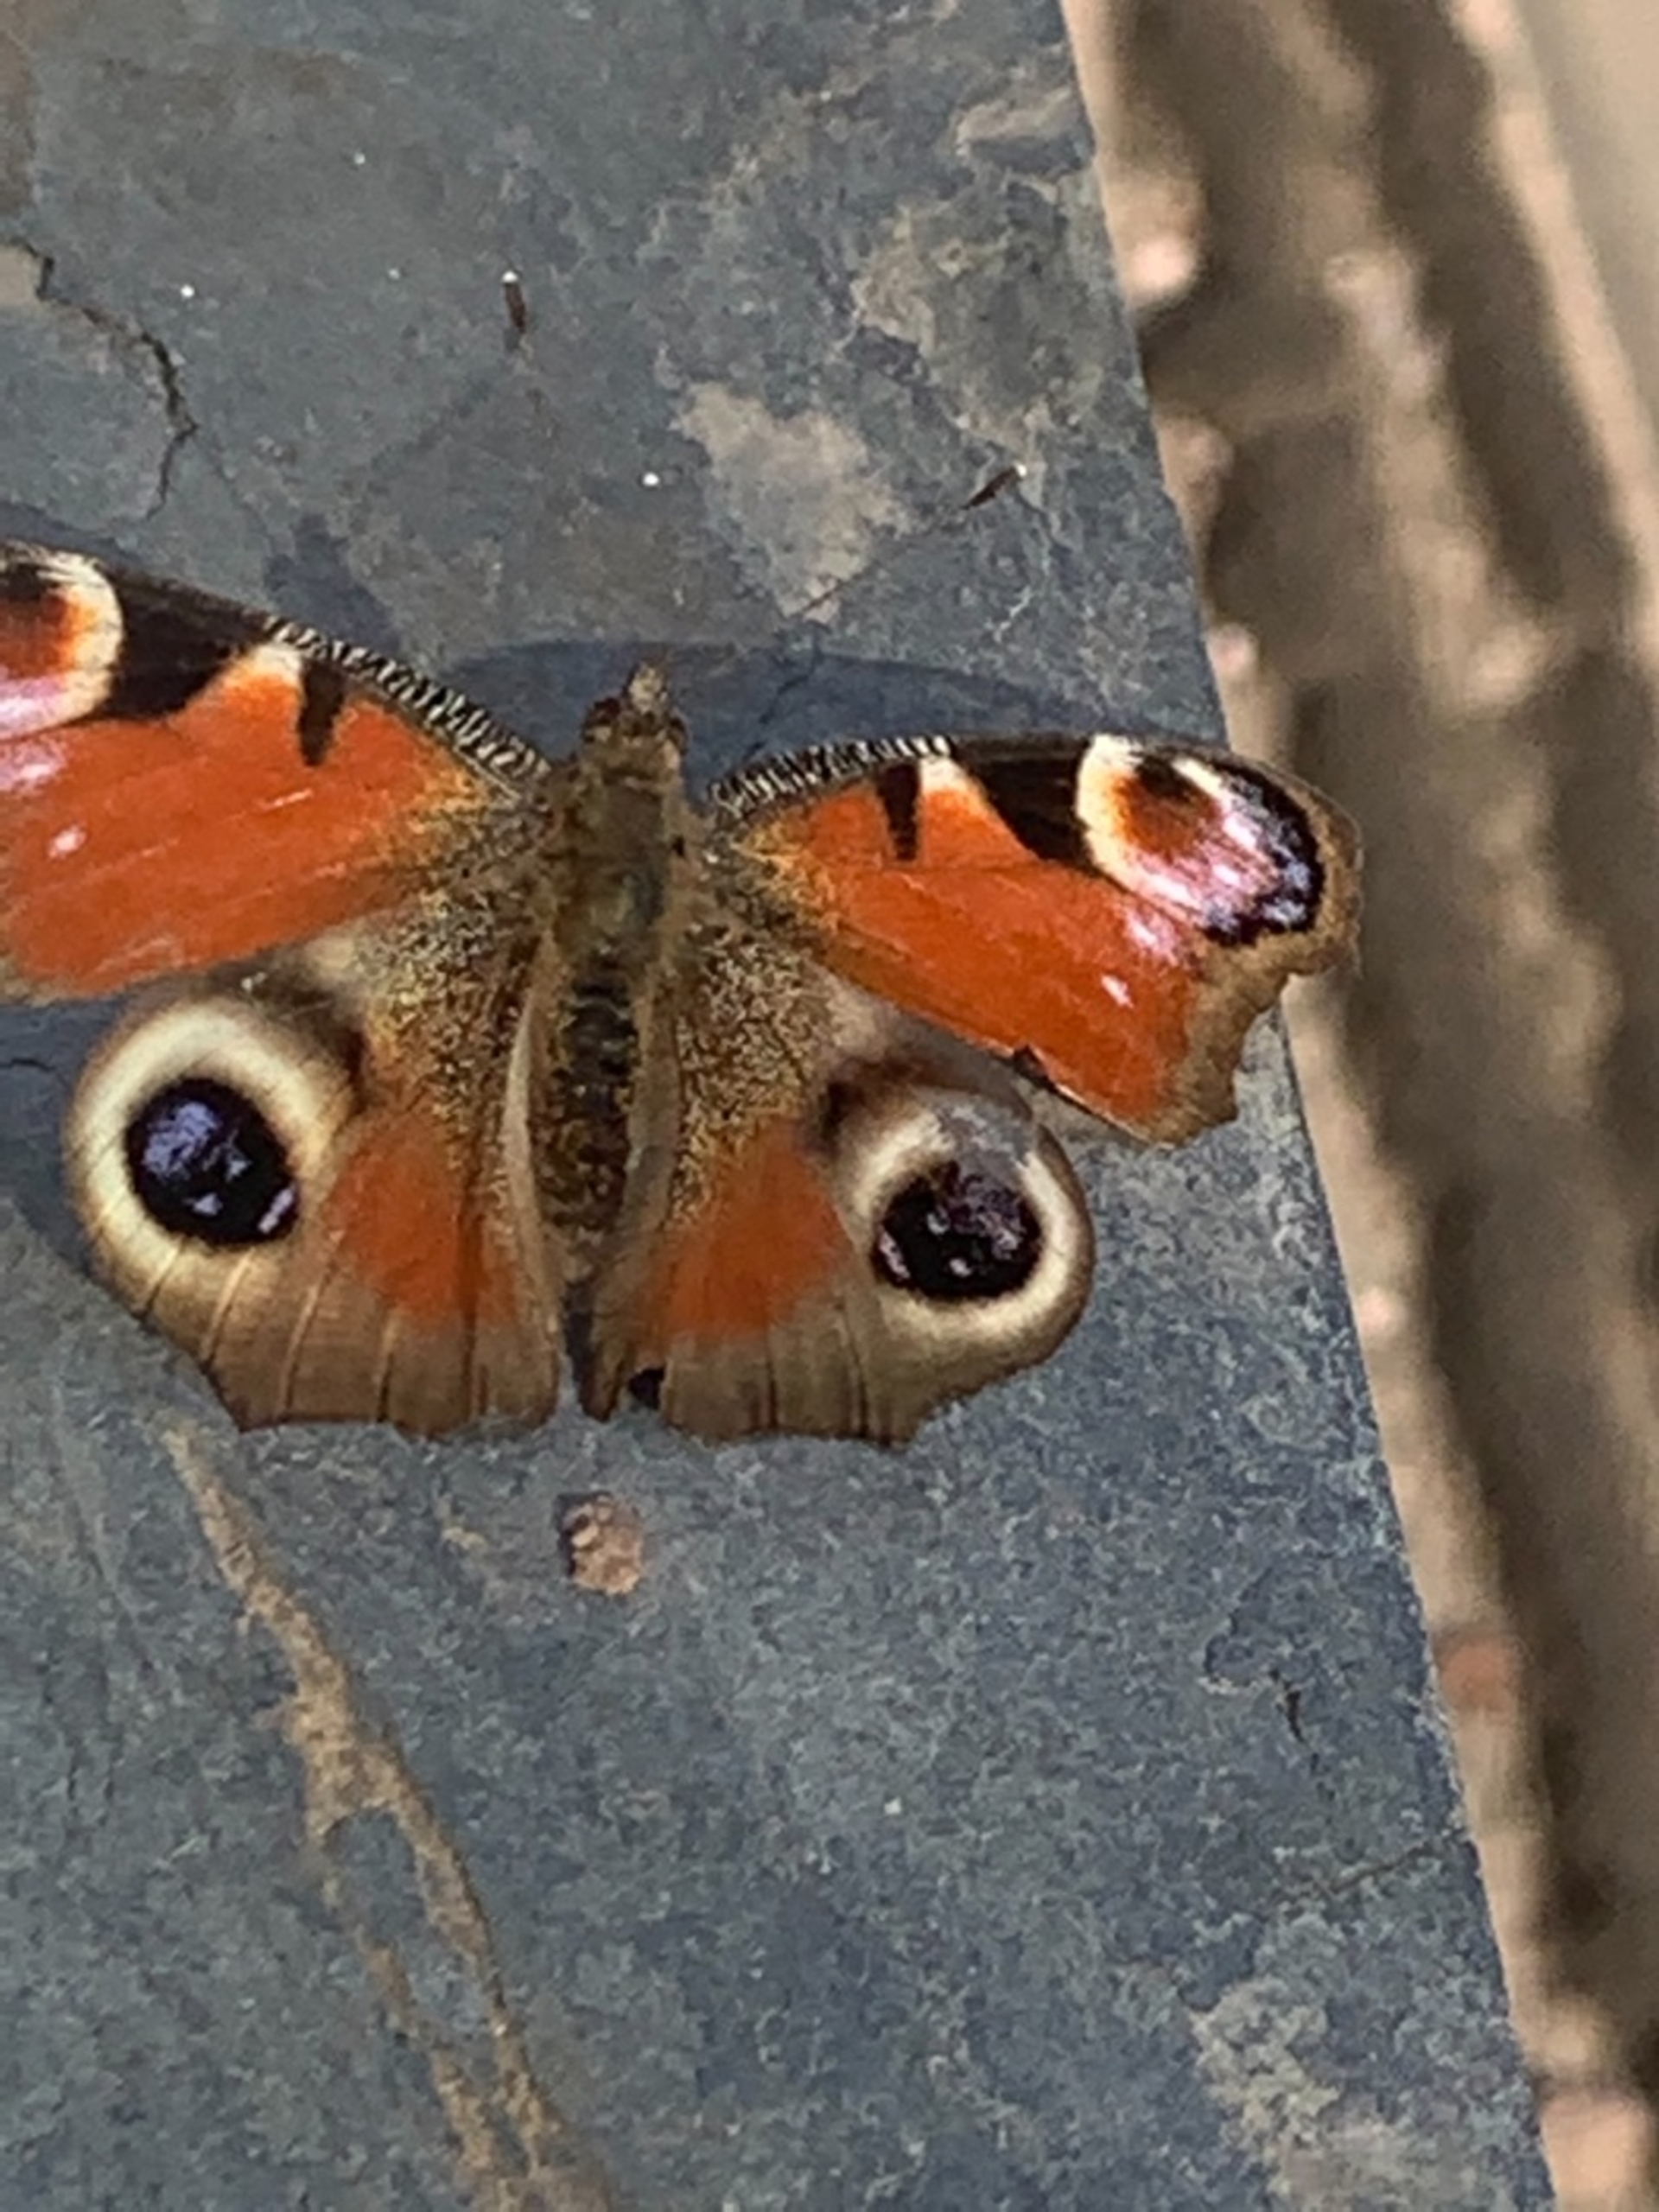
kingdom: Animalia
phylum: Arthropoda
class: Insecta
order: Lepidoptera
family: Nymphalidae
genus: Aglais
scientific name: Aglais io
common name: Dagpåfugleøje
